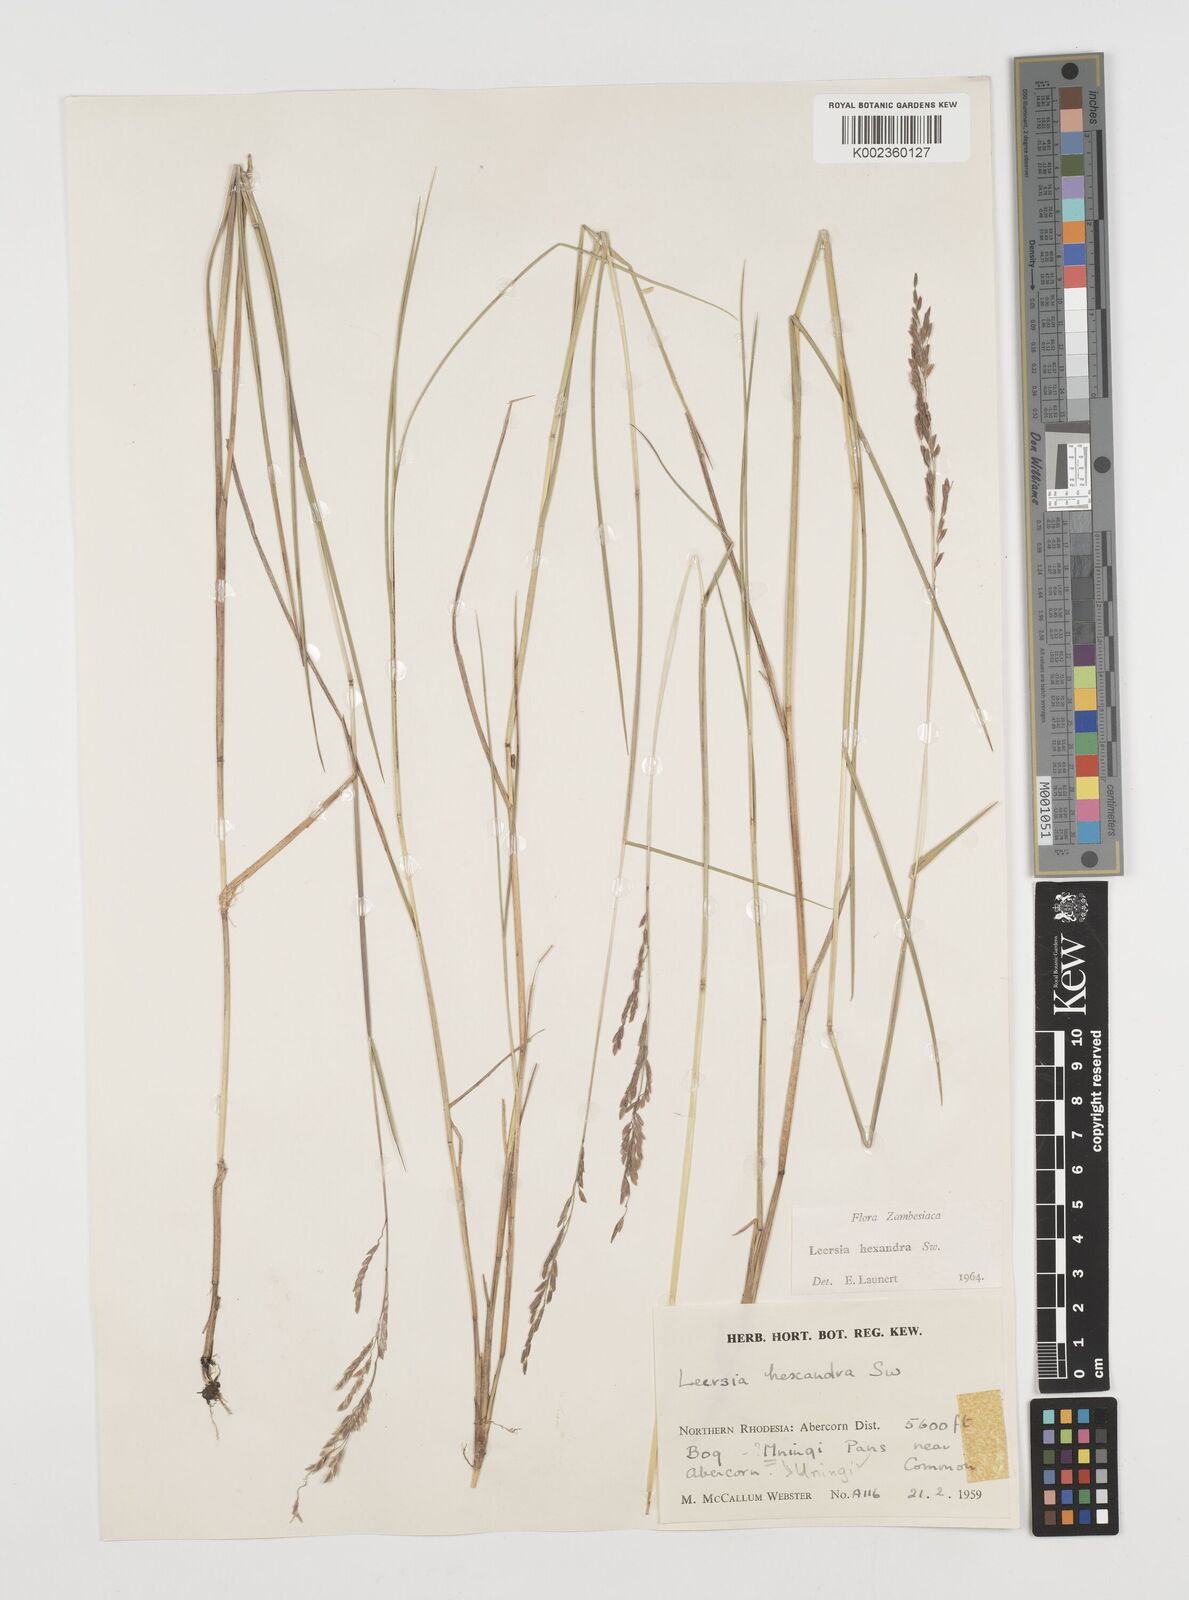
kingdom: Plantae
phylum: Tracheophyta
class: Liliopsida
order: Poales
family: Poaceae
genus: Leersia
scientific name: Leersia hexandra
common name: Southern cut grass
